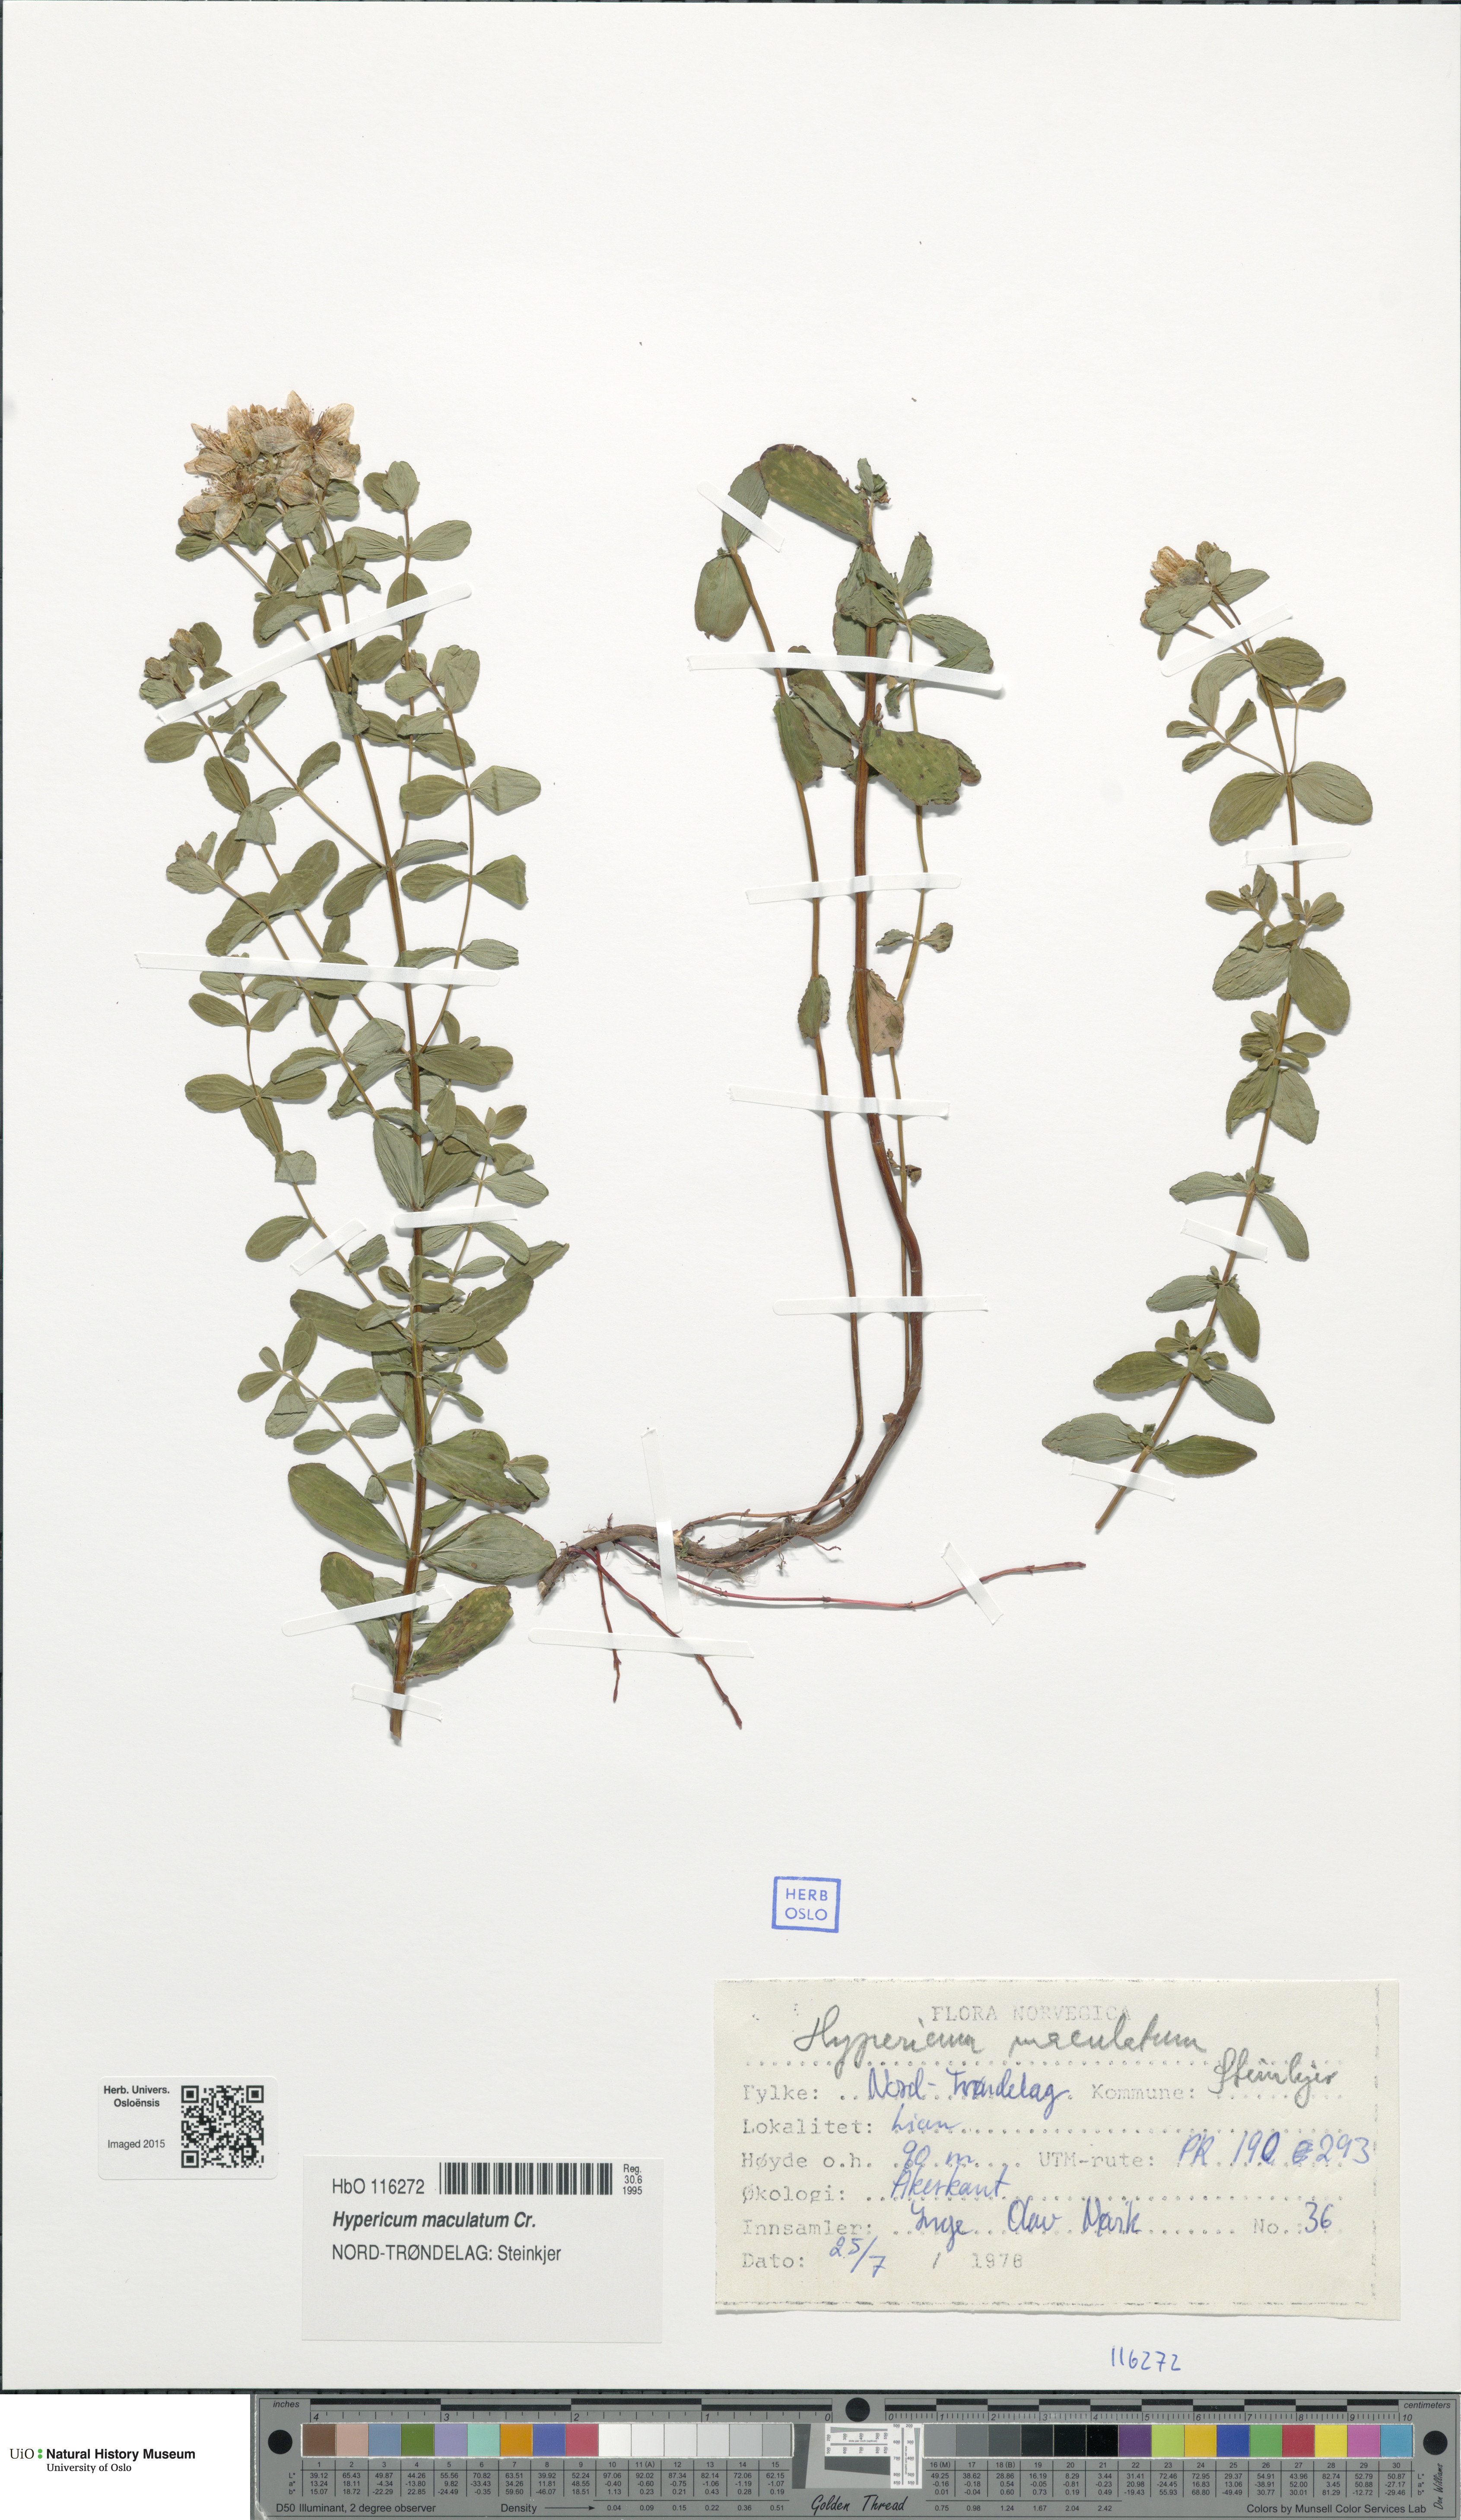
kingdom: Plantae
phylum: Tracheophyta
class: Magnoliopsida
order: Malpighiales
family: Hypericaceae
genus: Hypericum
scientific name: Hypericum maculatum
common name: Imperforate st. john's-wort
